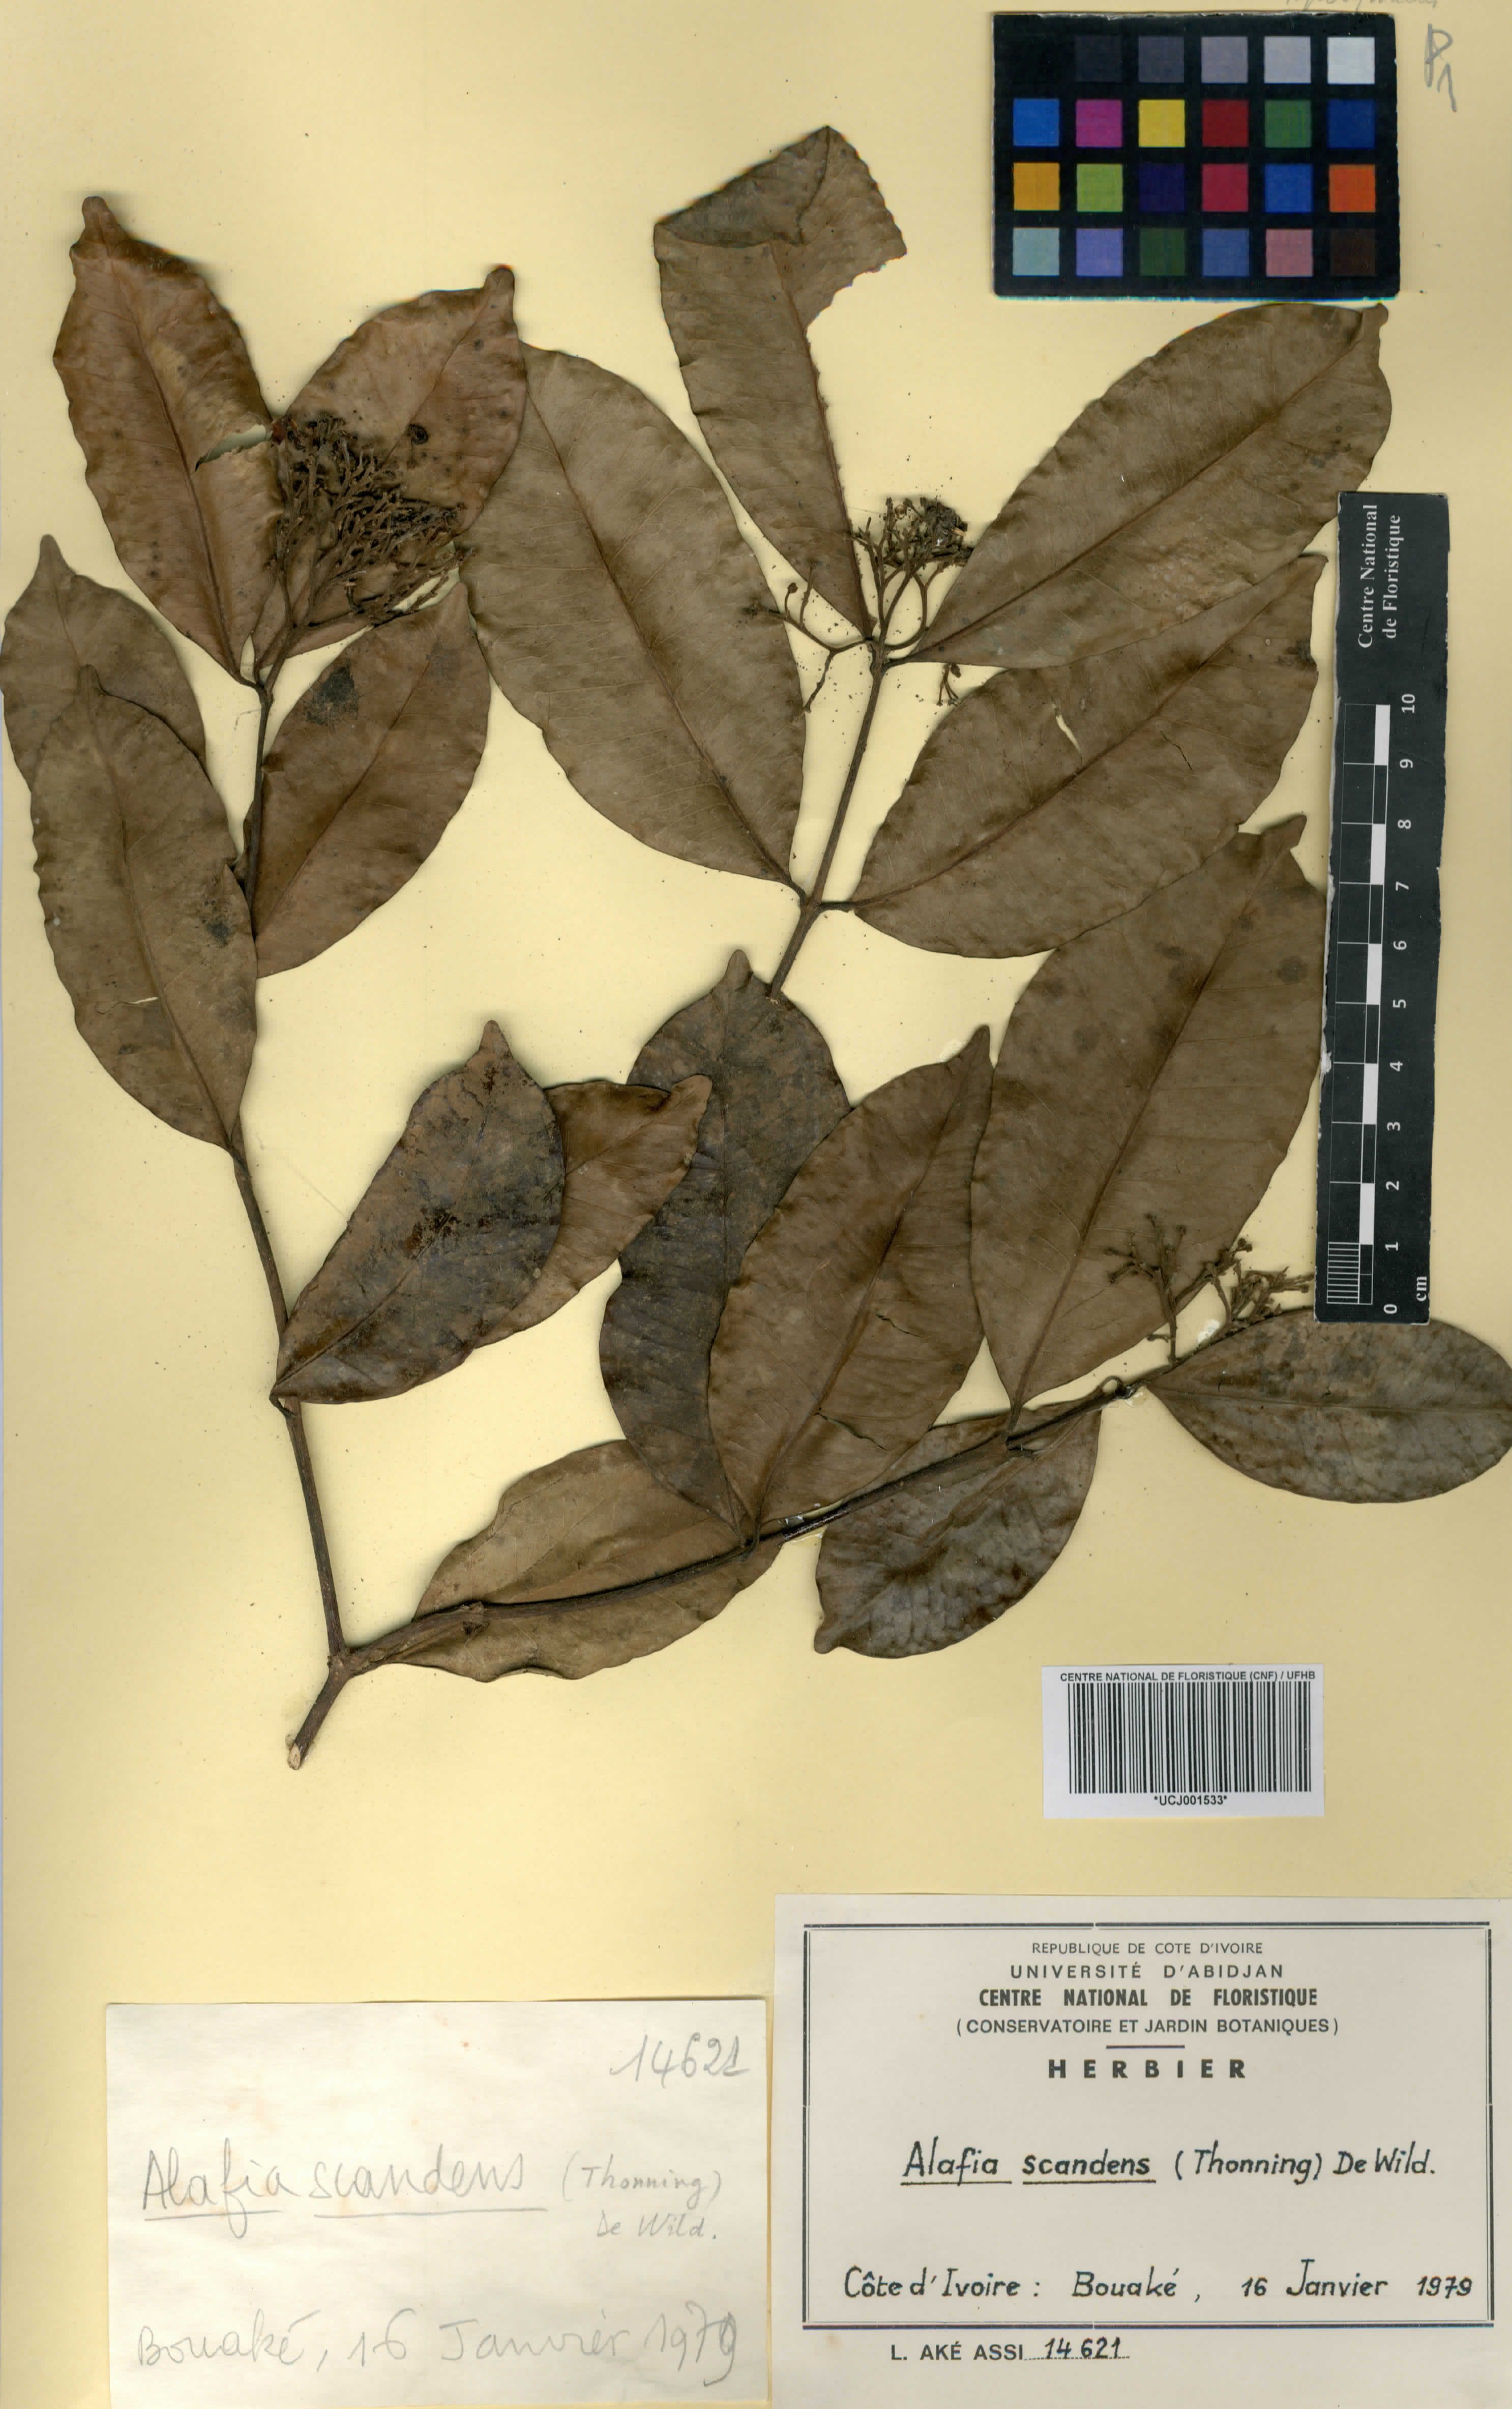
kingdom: Plantae
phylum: Tracheophyta
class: Magnoliopsida
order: Gentianales
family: Apocynaceae
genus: Alafia
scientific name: Alafia scandens
